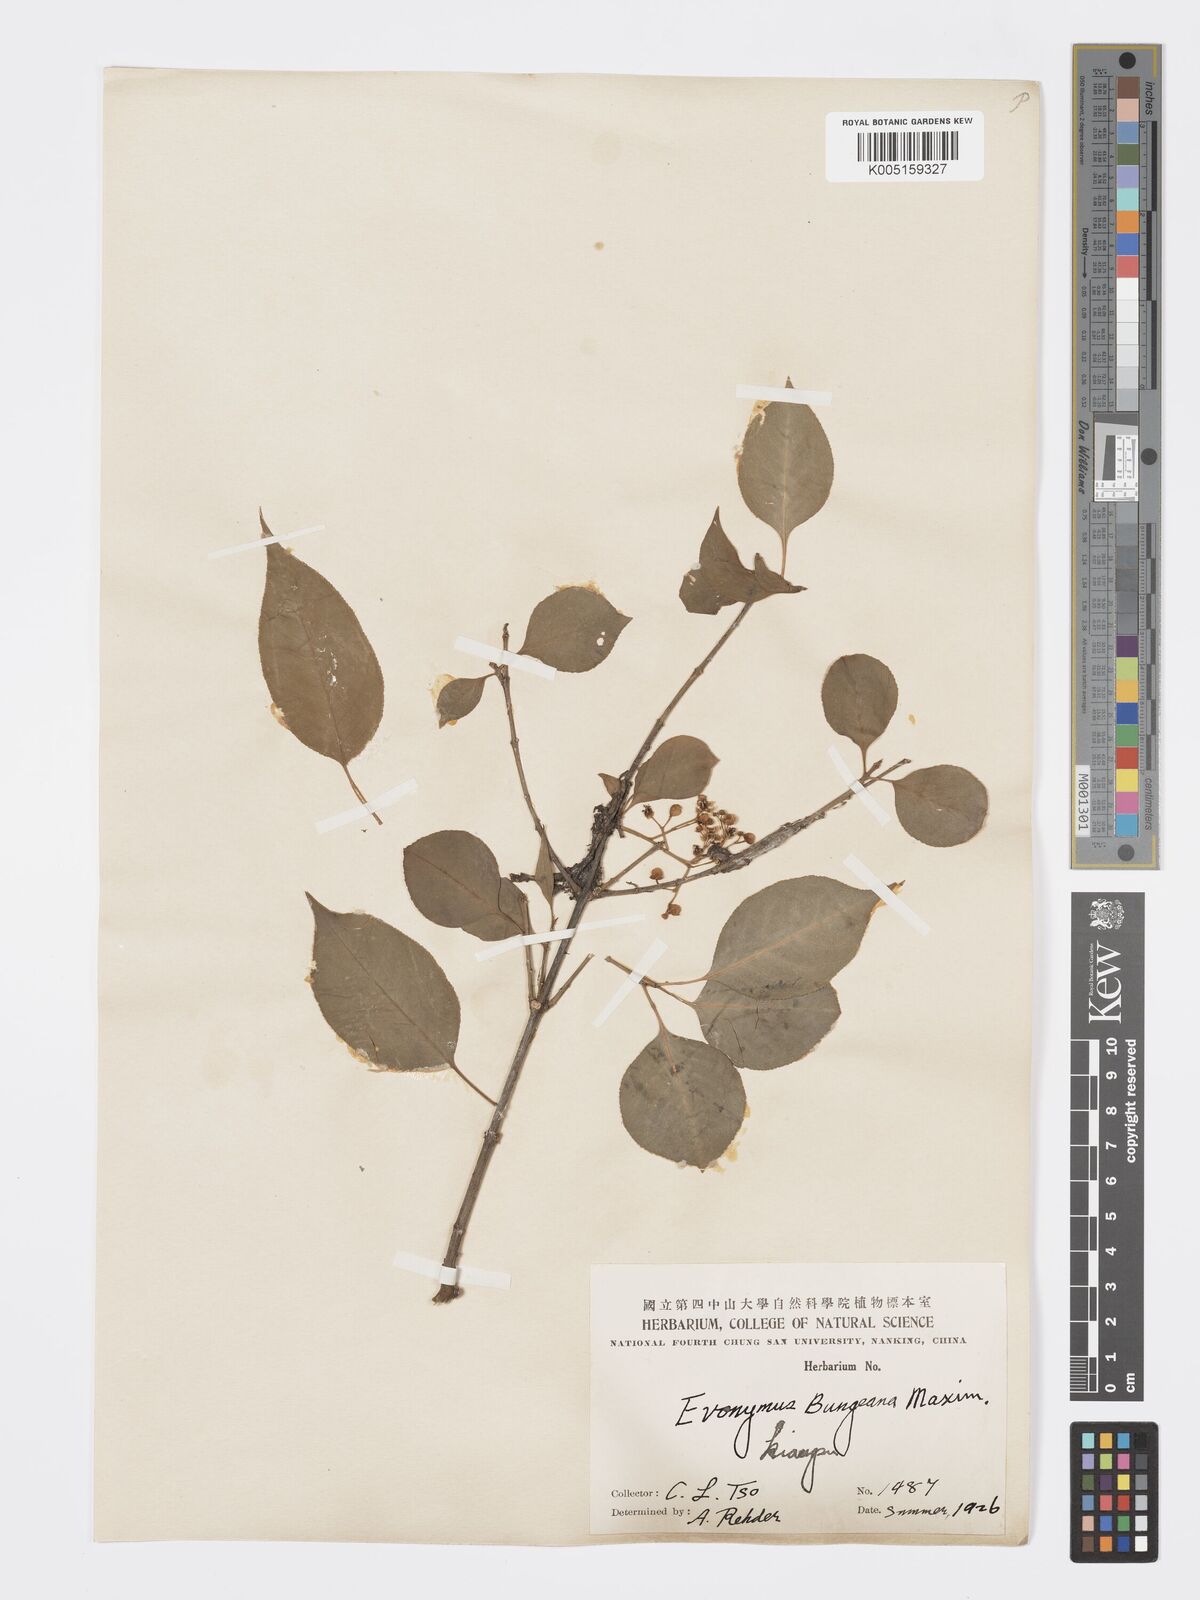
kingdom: Plantae
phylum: Tracheophyta
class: Magnoliopsida
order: Celastrales
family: Celastraceae
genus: Euonymus
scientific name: Euonymus maackii
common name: Hamilton's spindletree
